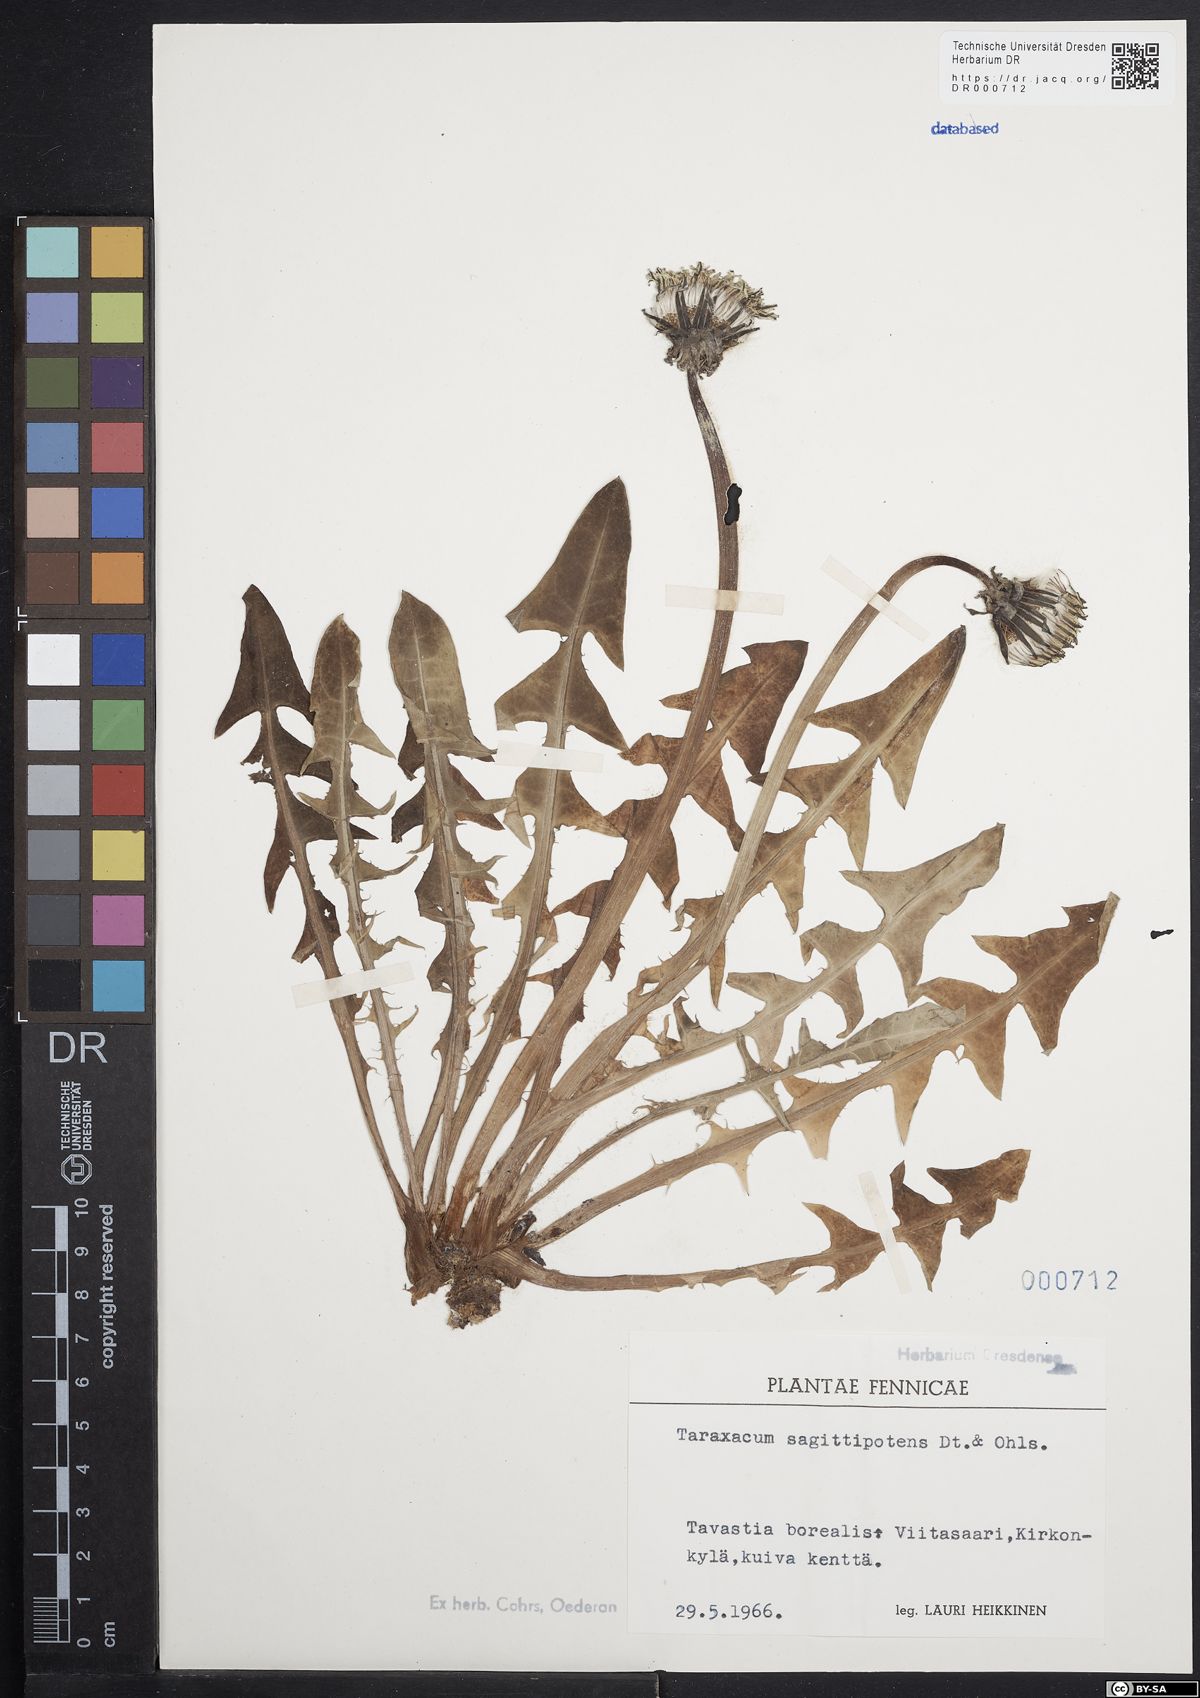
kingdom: Plantae
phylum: Tracheophyta
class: Magnoliopsida
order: Asterales
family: Asteraceae
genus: Taraxacum
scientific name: Taraxacum sagittipotens
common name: Smooth dandelion
